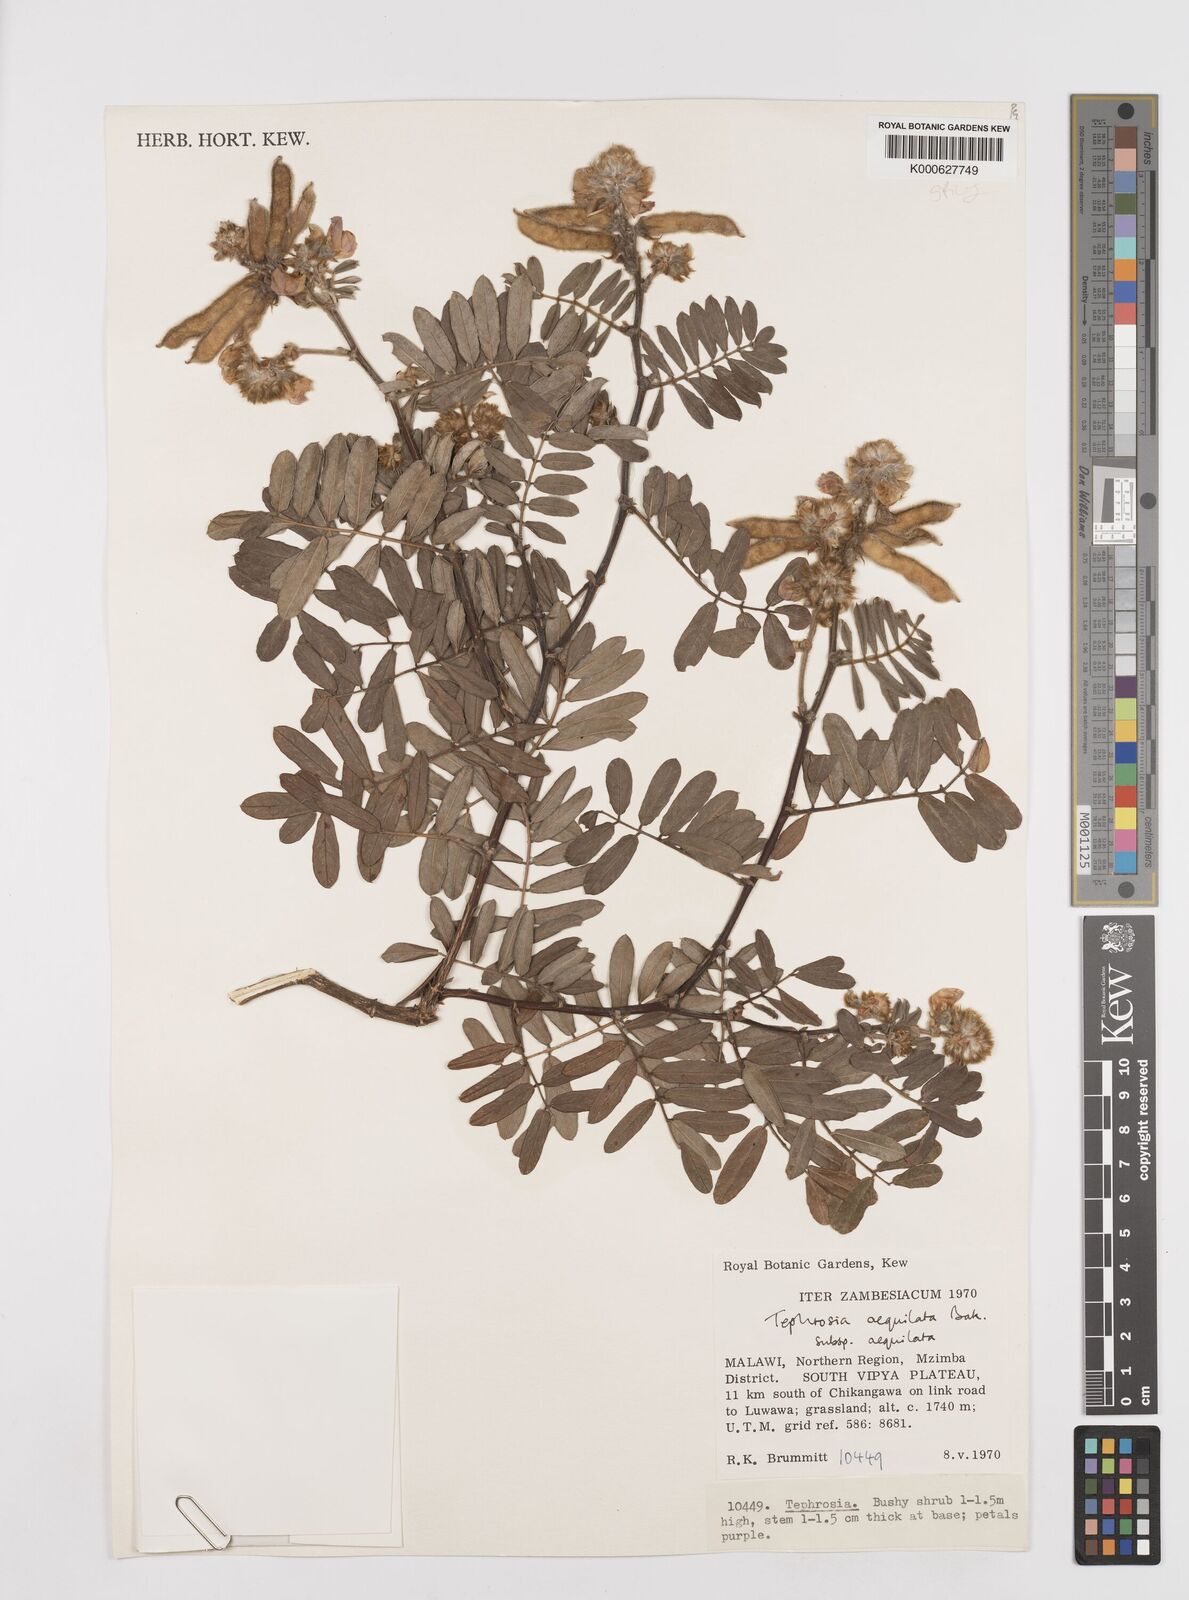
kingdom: Plantae
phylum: Tracheophyta
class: Magnoliopsida
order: Fabales
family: Fabaceae
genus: Tephrosia
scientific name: Tephrosia
